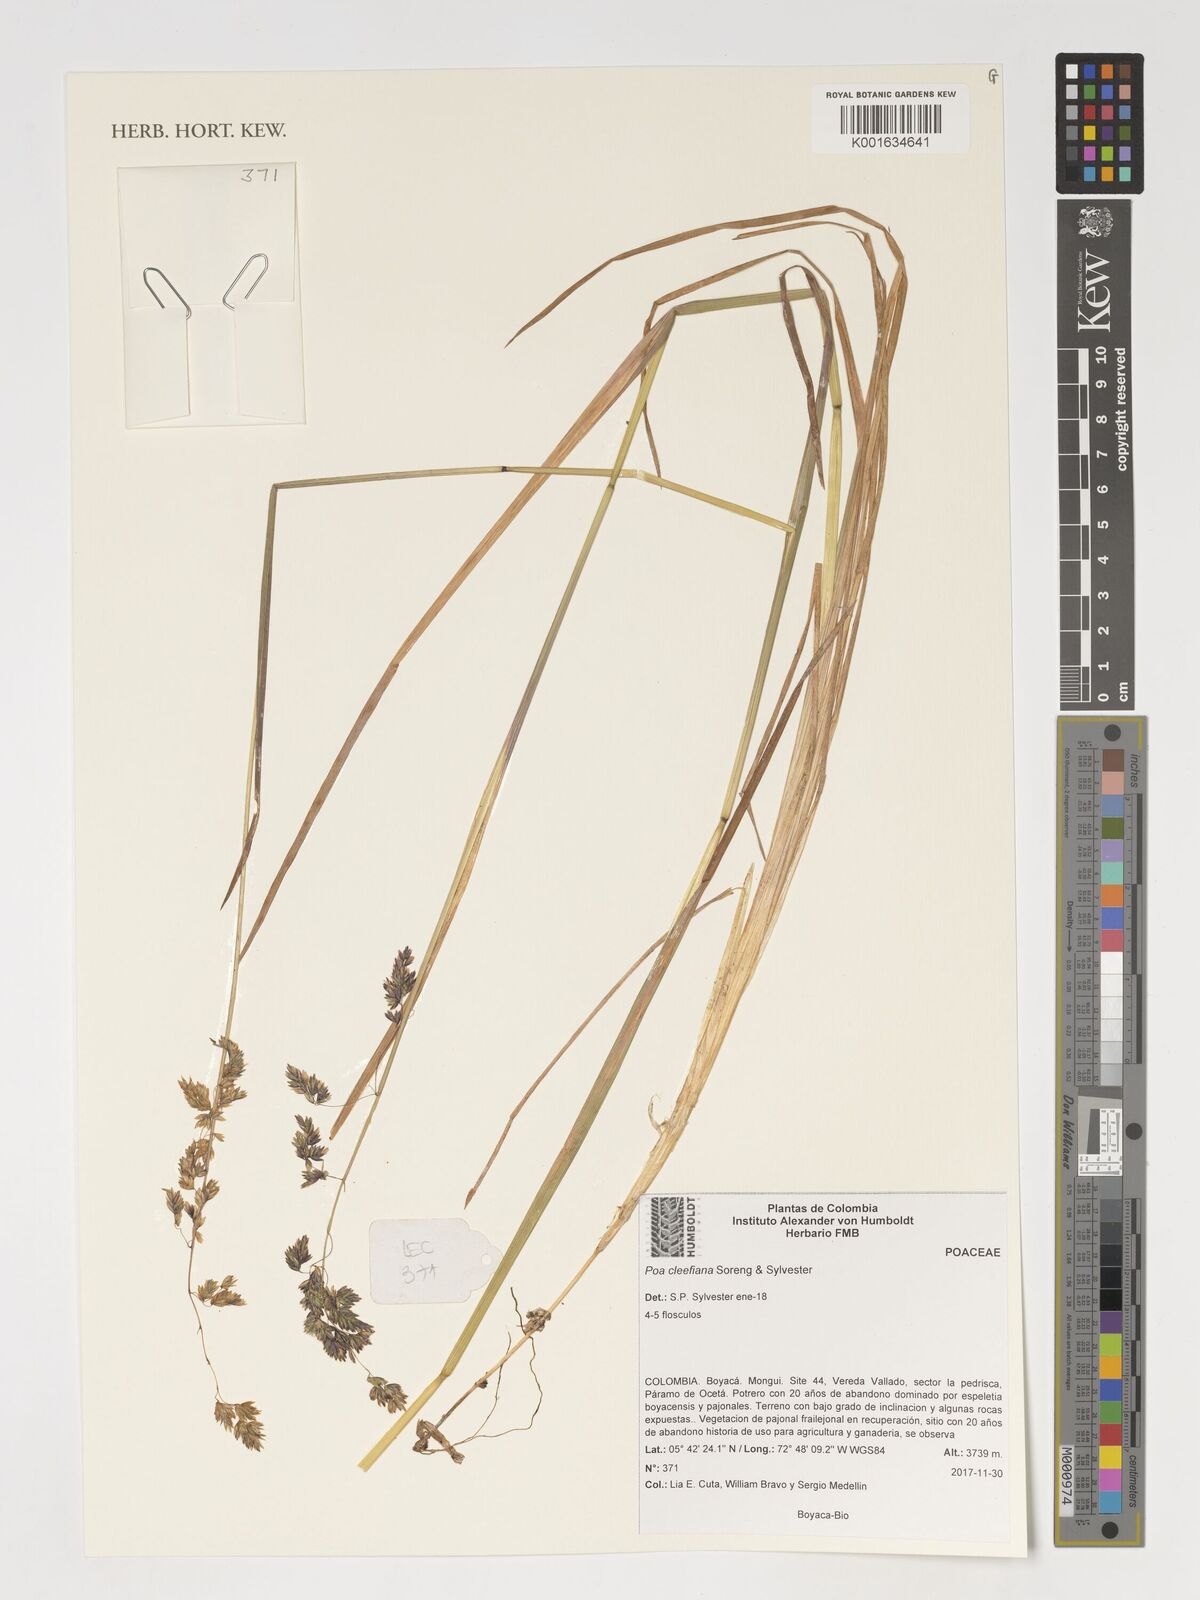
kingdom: Plantae
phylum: Tracheophyta
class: Liliopsida
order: Poales
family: Poaceae
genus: Poa
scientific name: Poa
